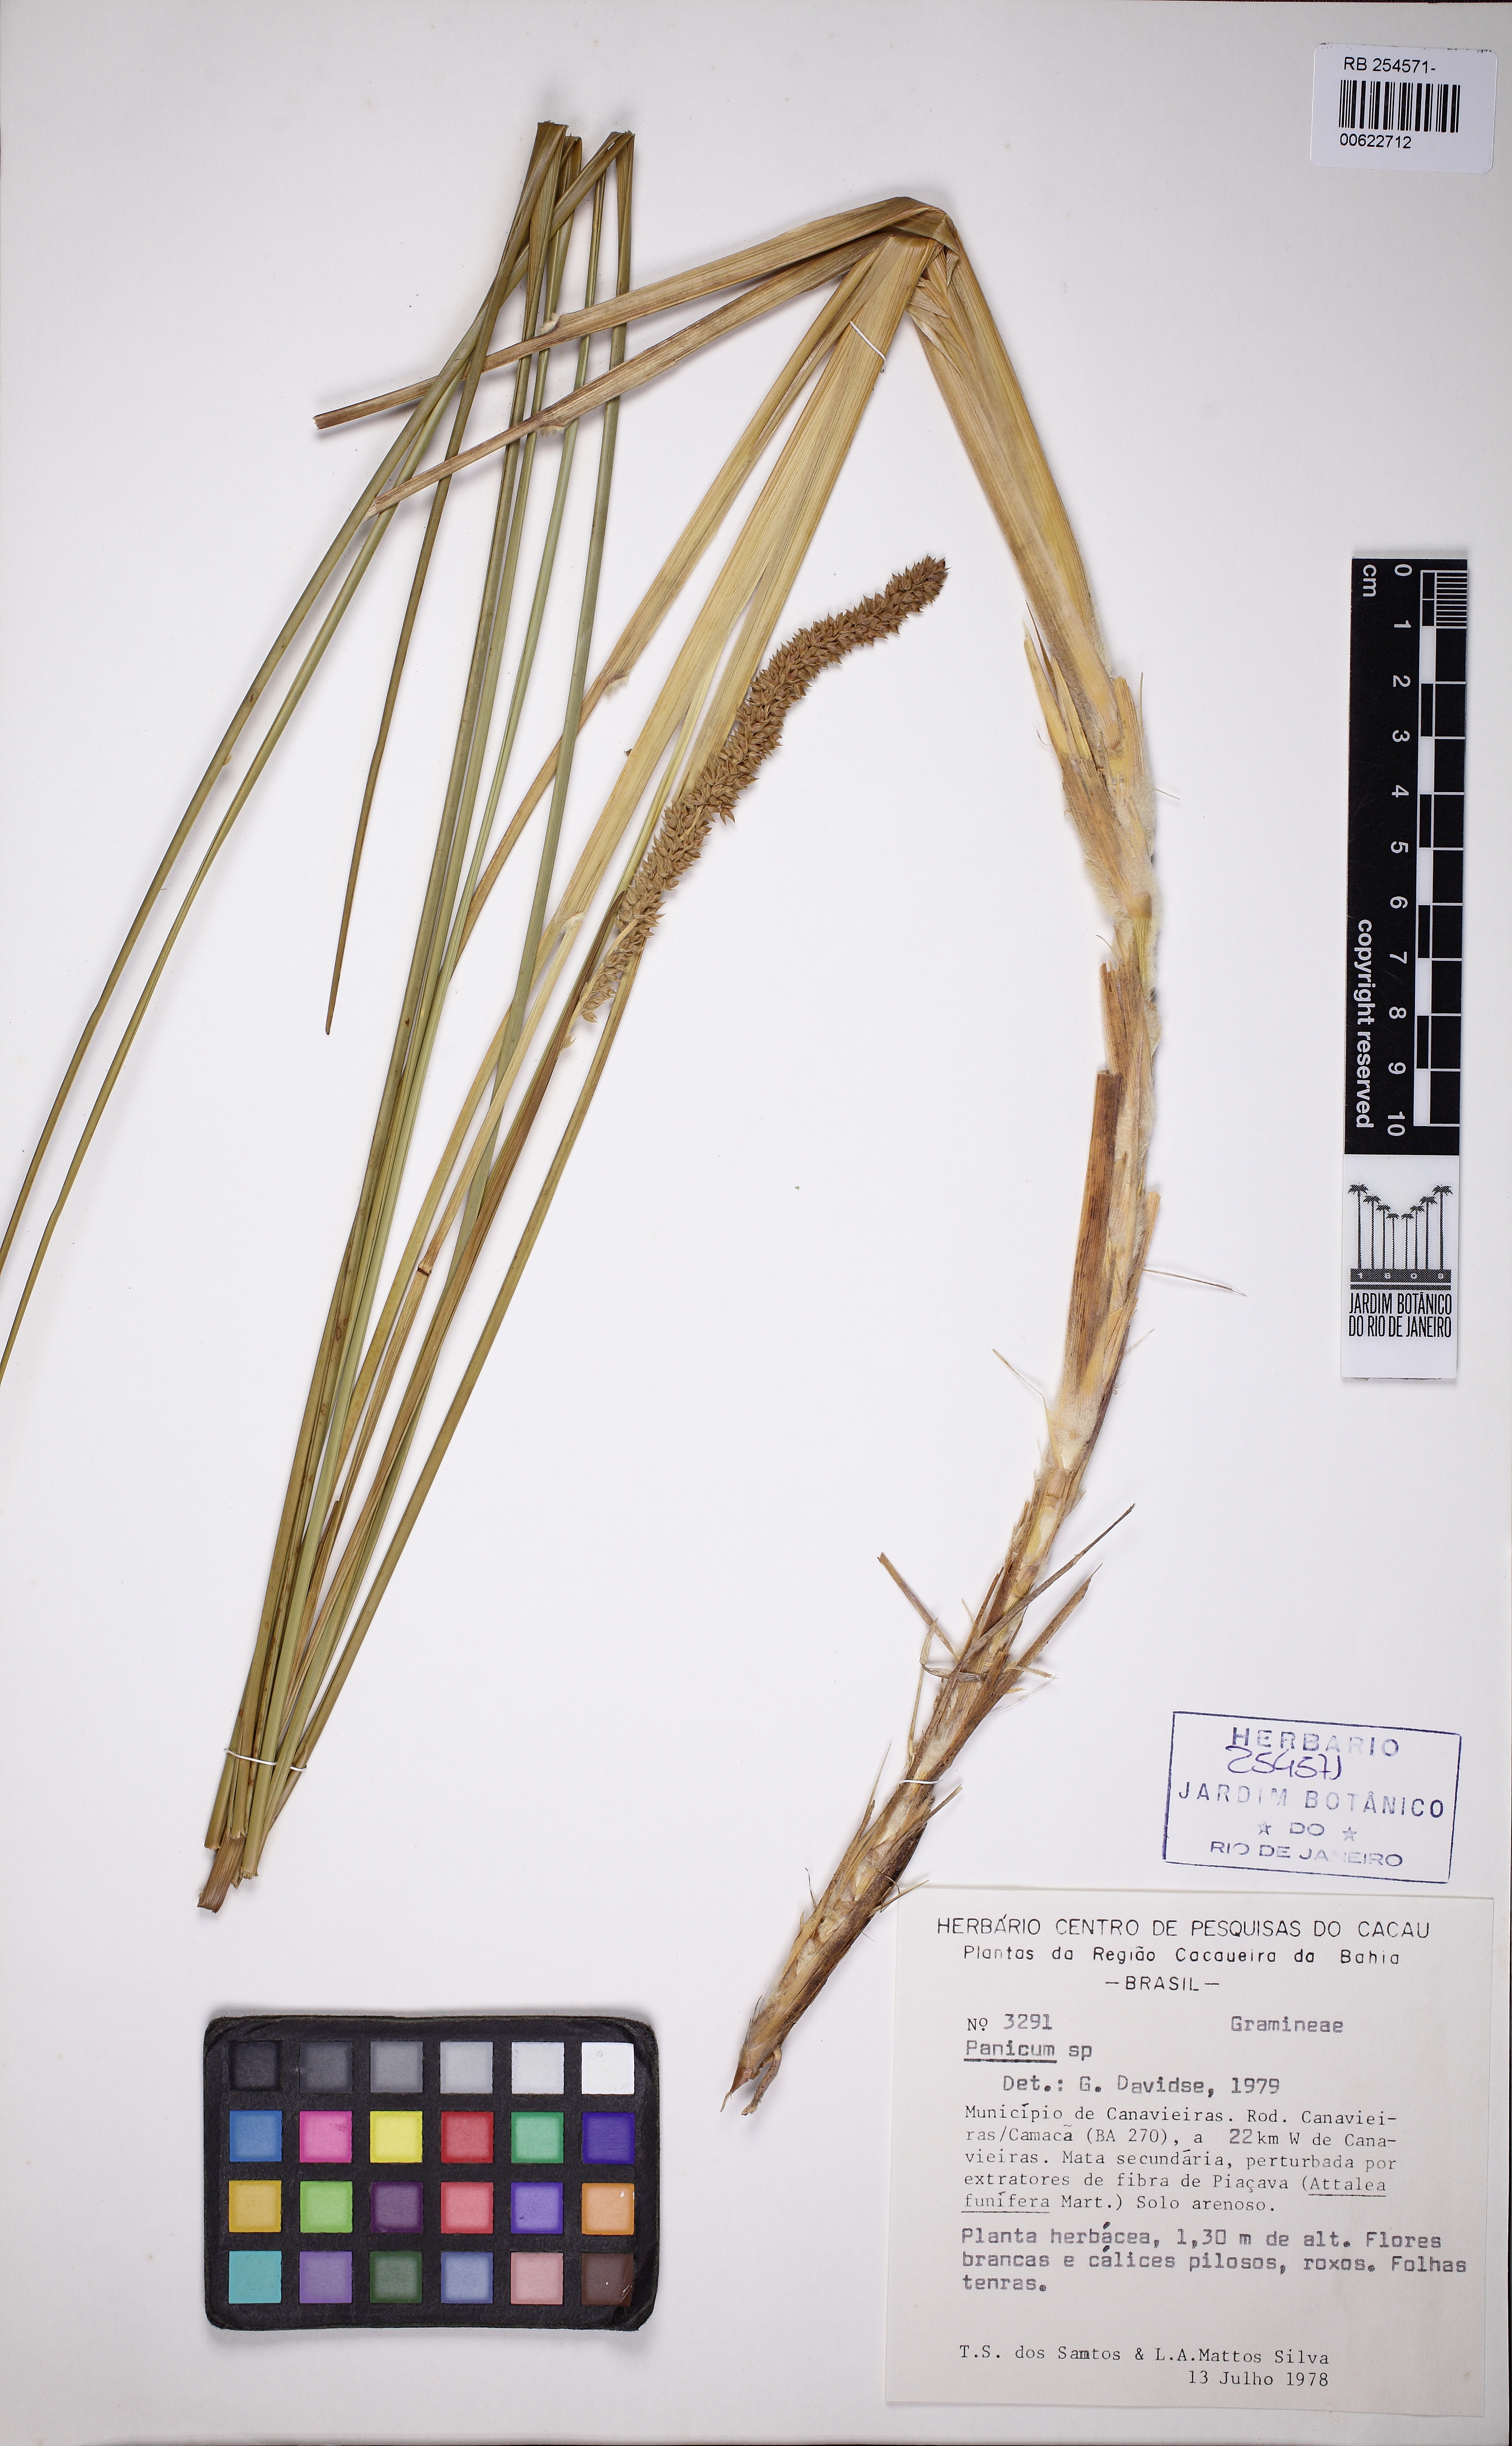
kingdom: Plantae
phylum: Tracheophyta
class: Liliopsida
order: Poales
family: Poaceae
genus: Renvoizea
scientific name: Renvoizea sacciolepoides
